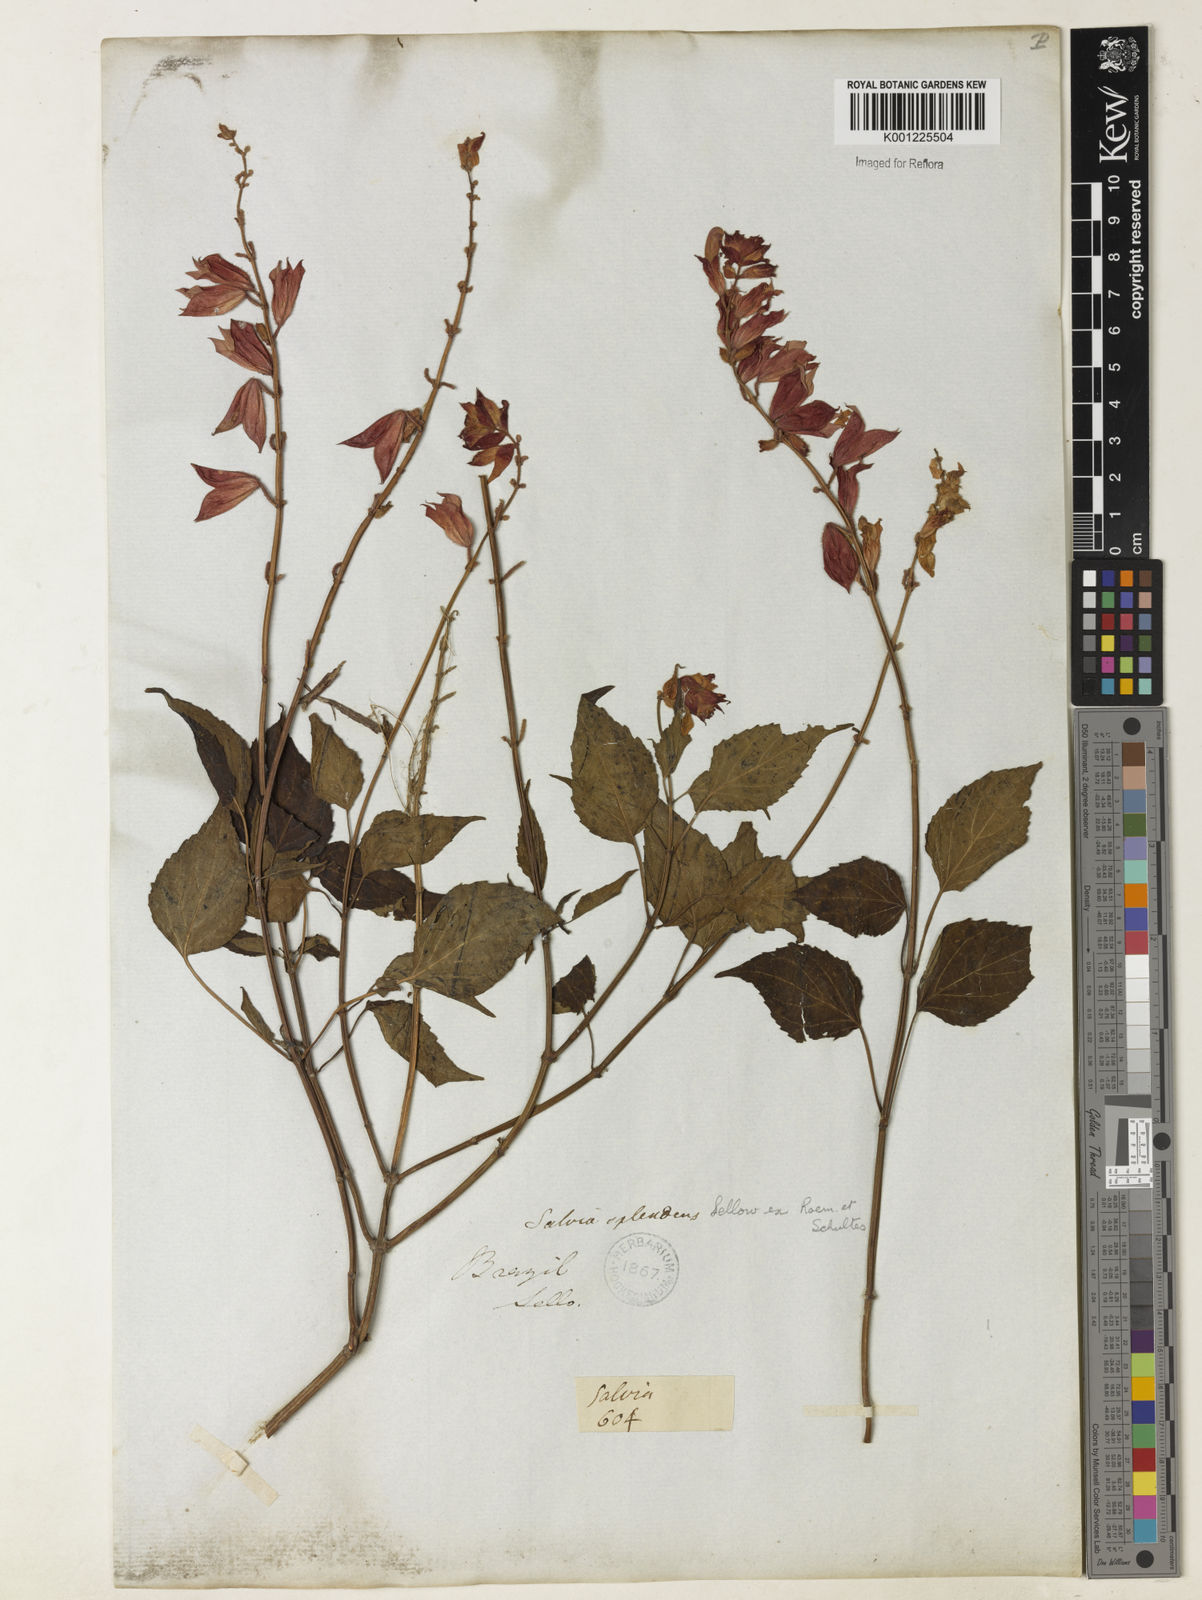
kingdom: Plantae
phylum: Tracheophyta
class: Magnoliopsida
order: Lamiales
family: Lamiaceae
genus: Salvia
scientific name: Salvia
